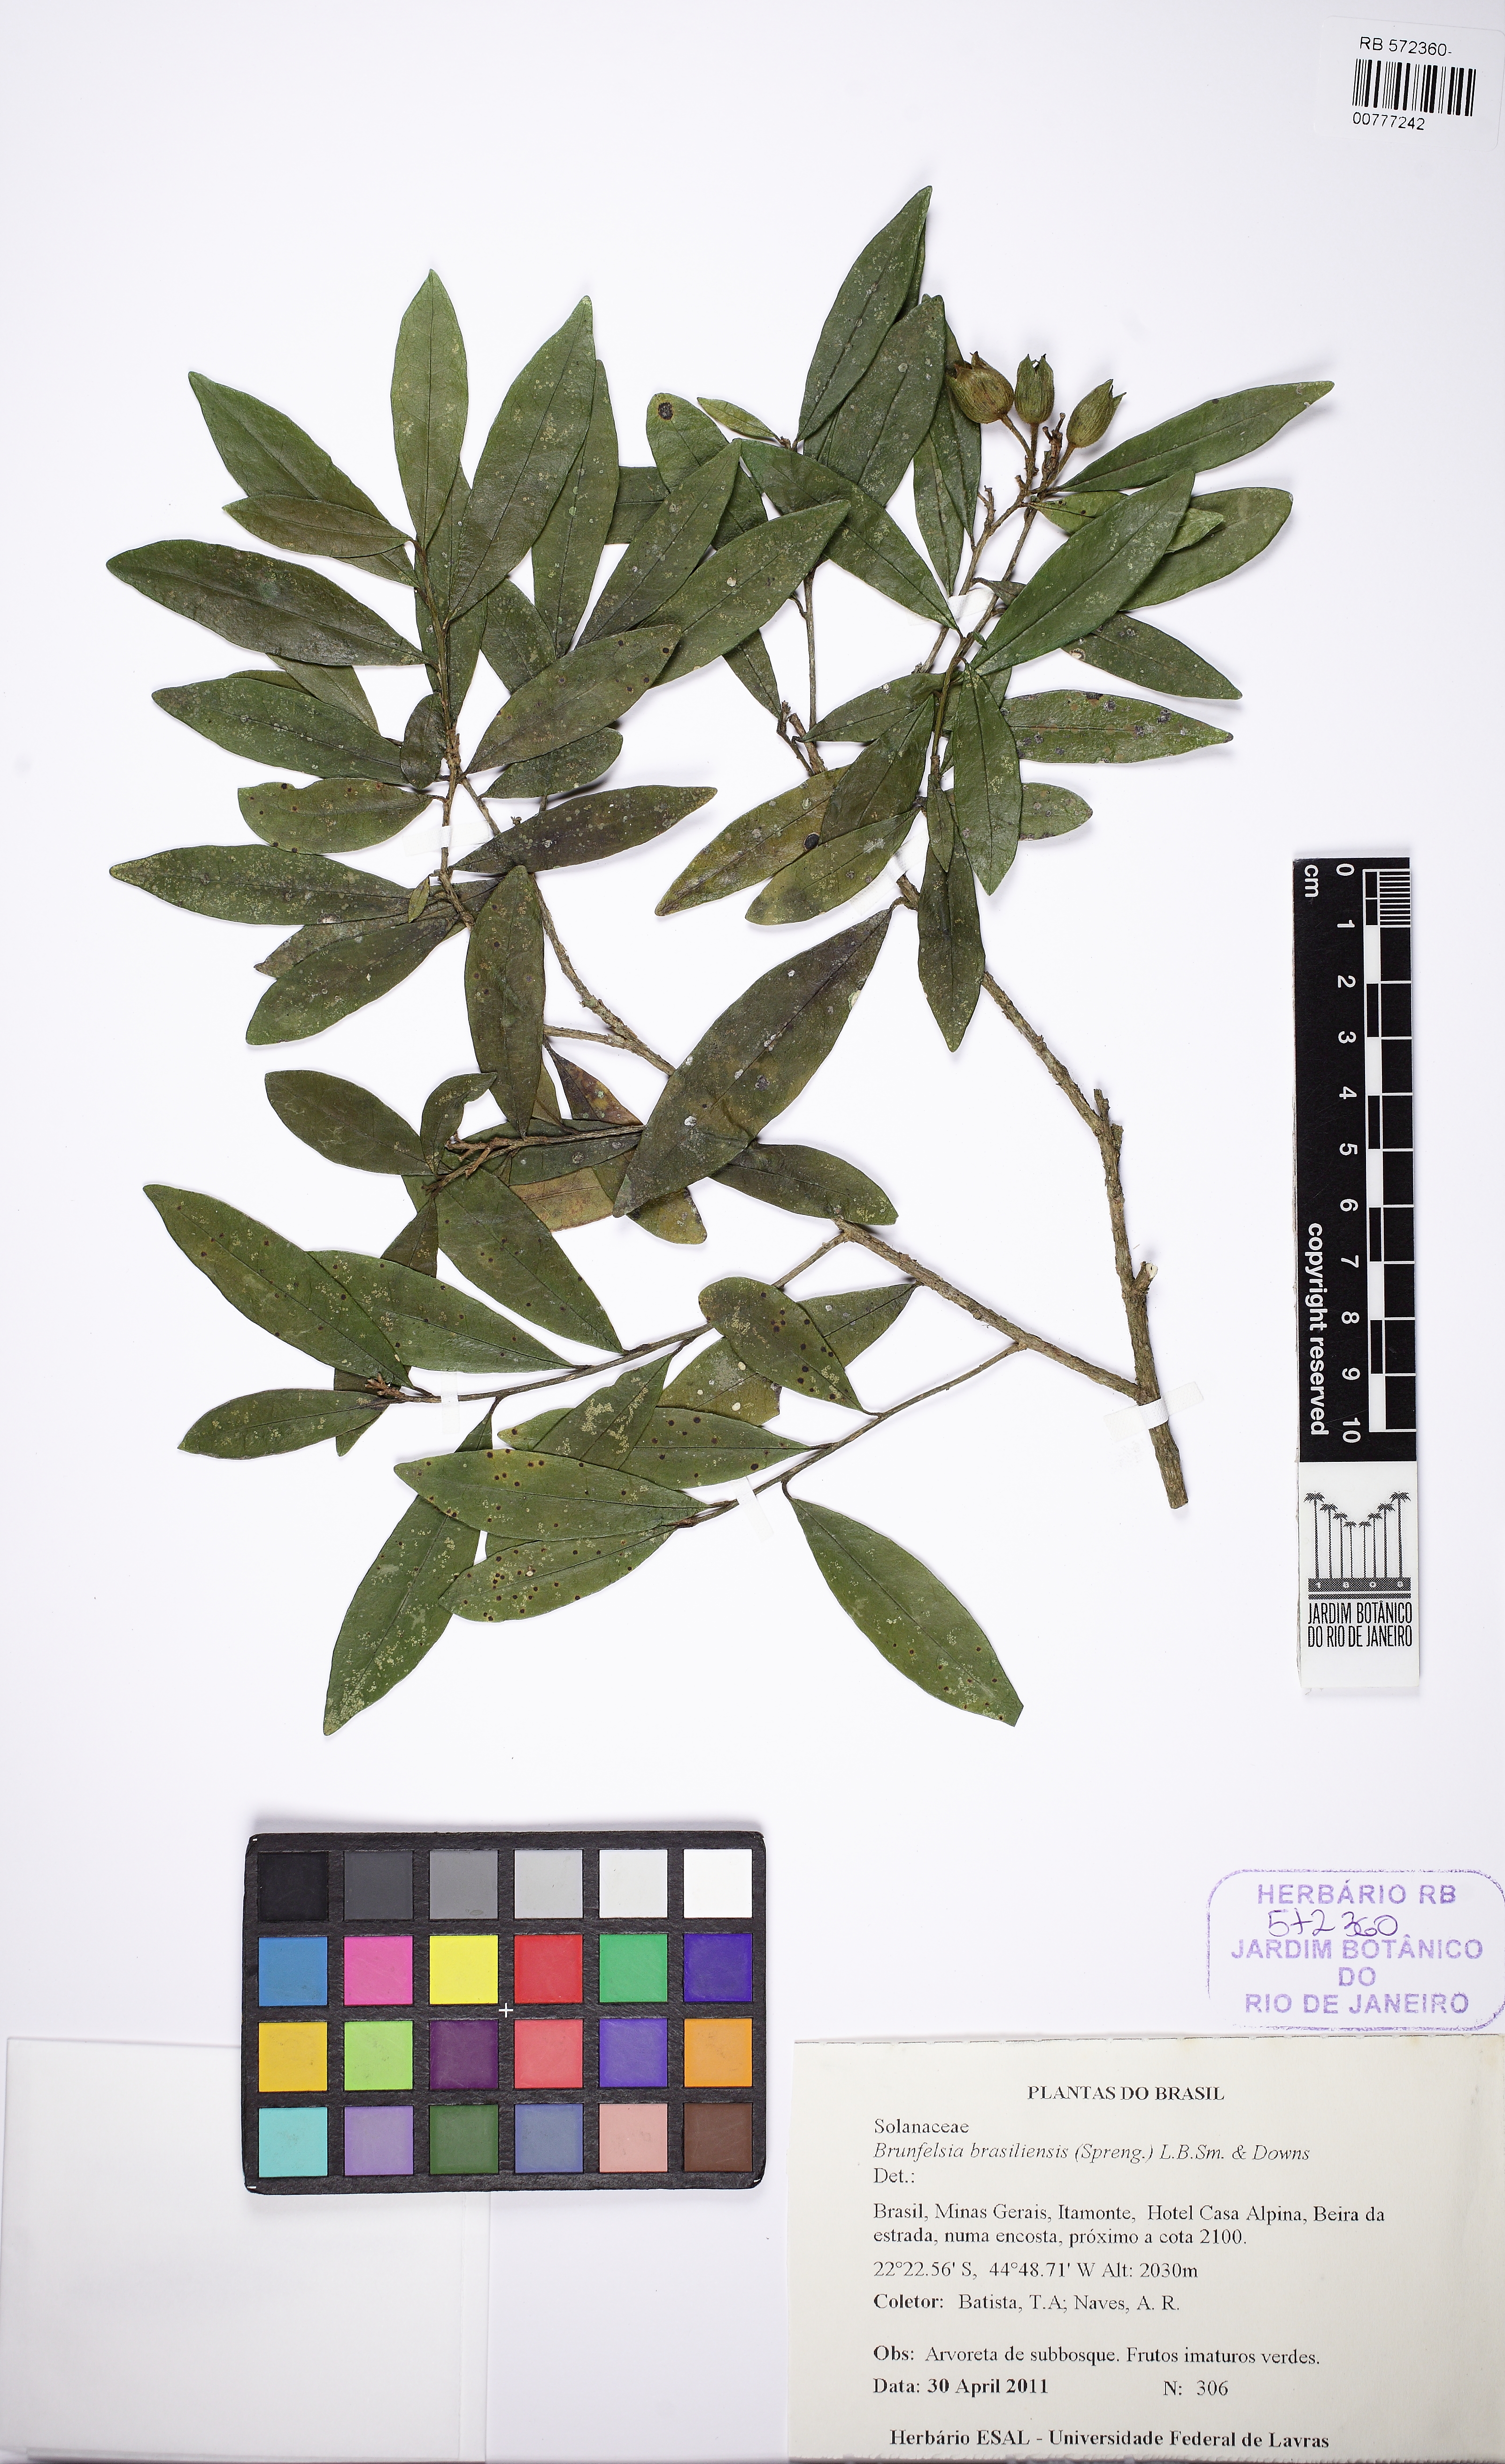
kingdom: Plantae
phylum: Tracheophyta
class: Magnoliopsida
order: Solanales
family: Solanaceae
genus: Brunfelsia
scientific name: Brunfelsia brasiliensis
